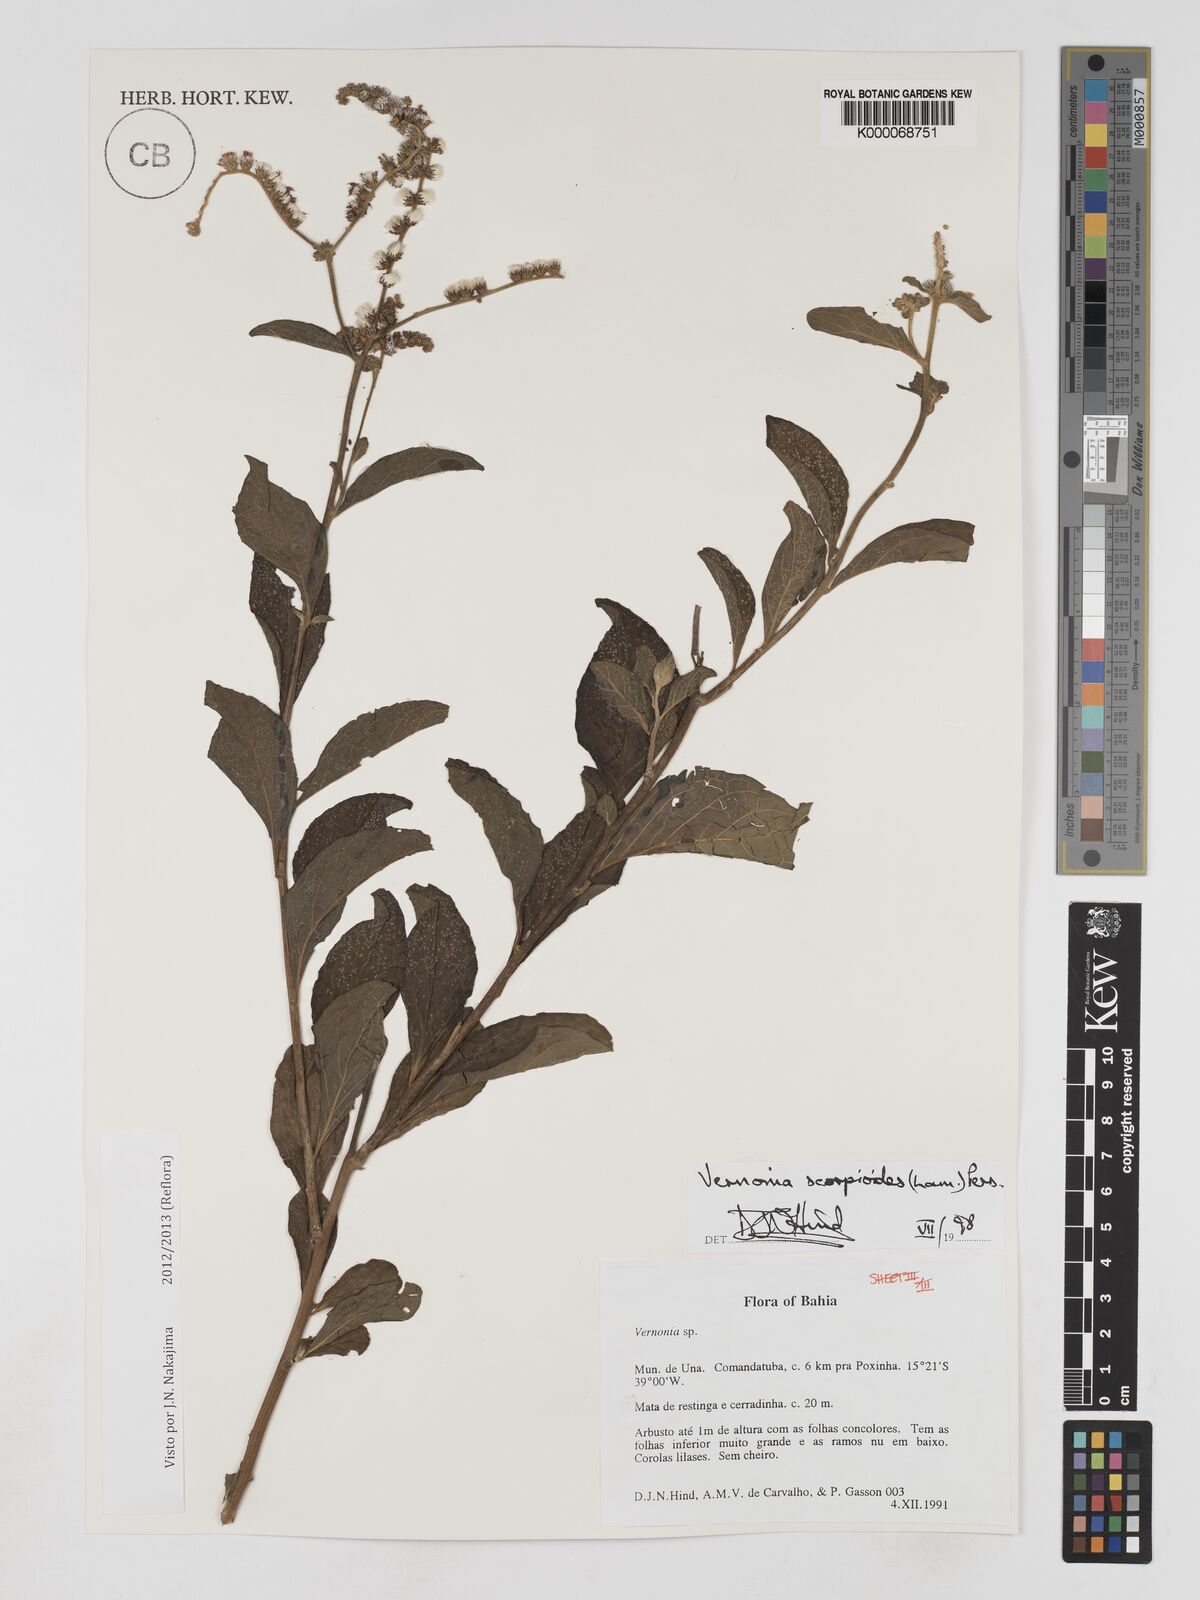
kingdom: Plantae
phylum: Tracheophyta
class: Magnoliopsida
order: Asterales
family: Asteraceae
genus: Cyrtocymura
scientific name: Cyrtocymura scorpioides
